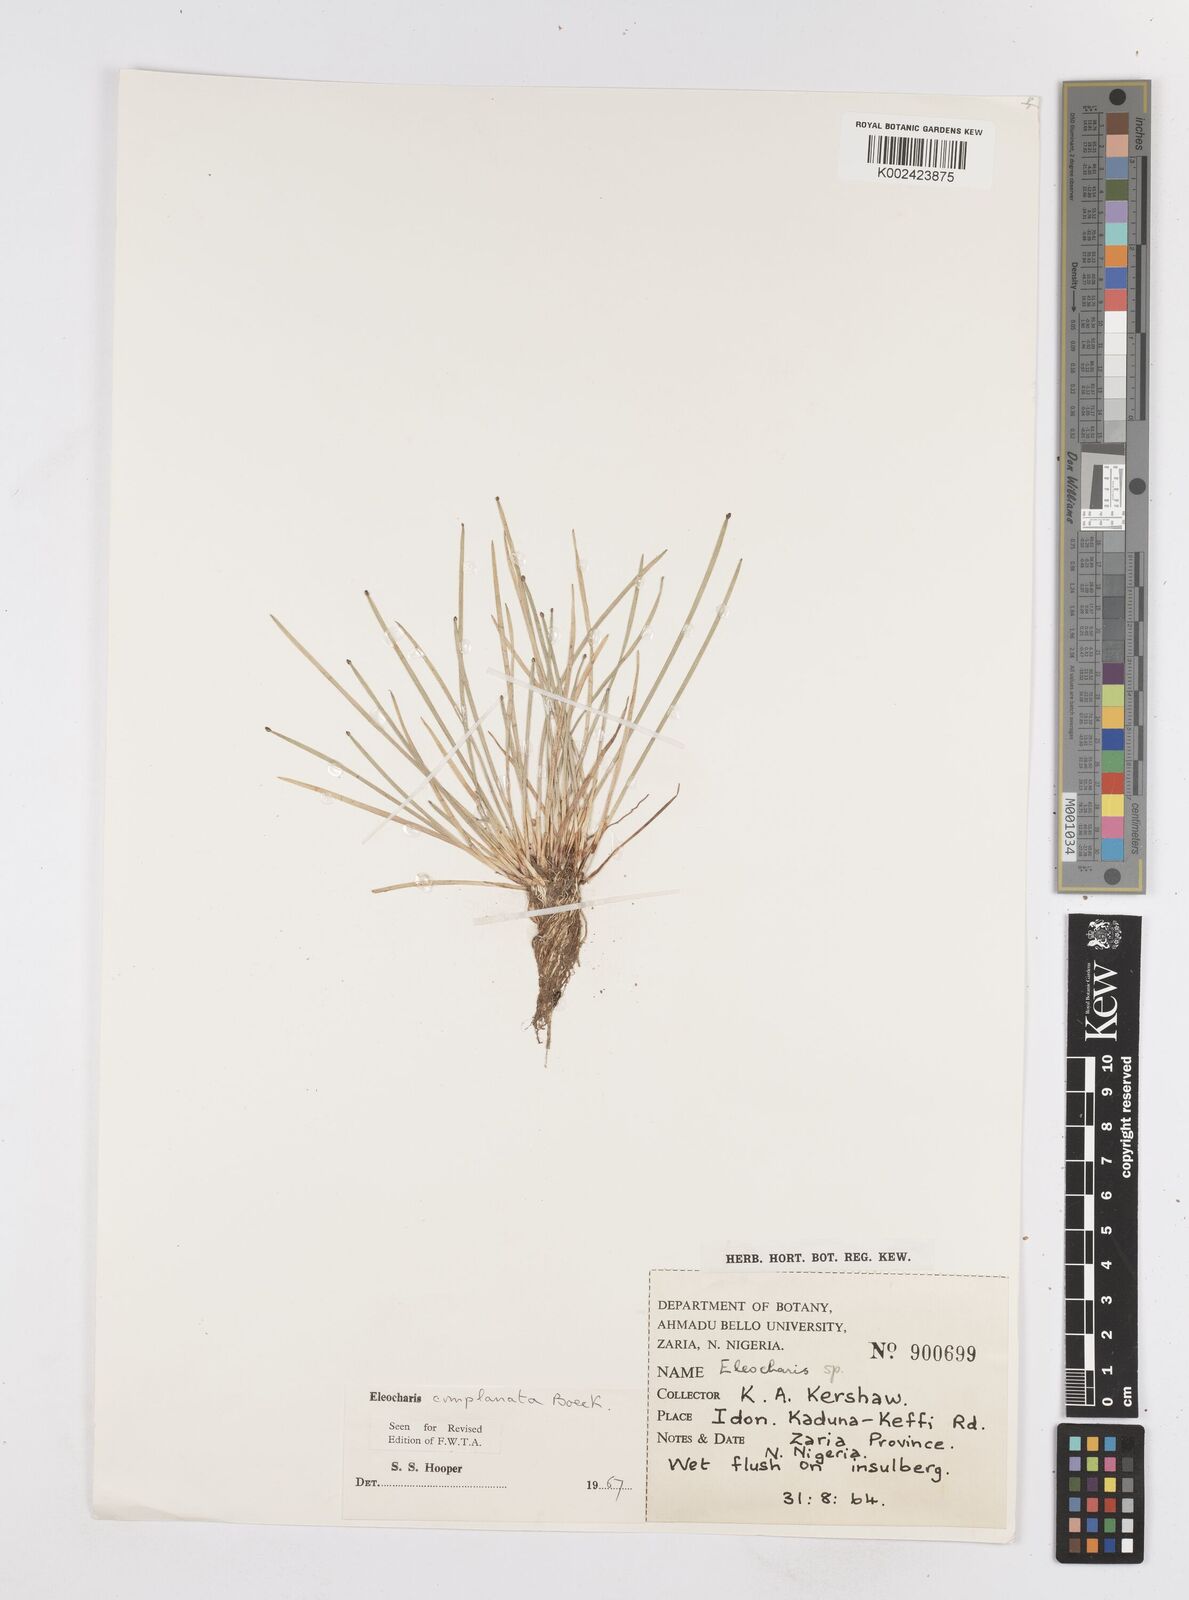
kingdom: Plantae
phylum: Tracheophyta
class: Liliopsida
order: Poales
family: Cyperaceae
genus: Eleocharis
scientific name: Eleocharis complanata
